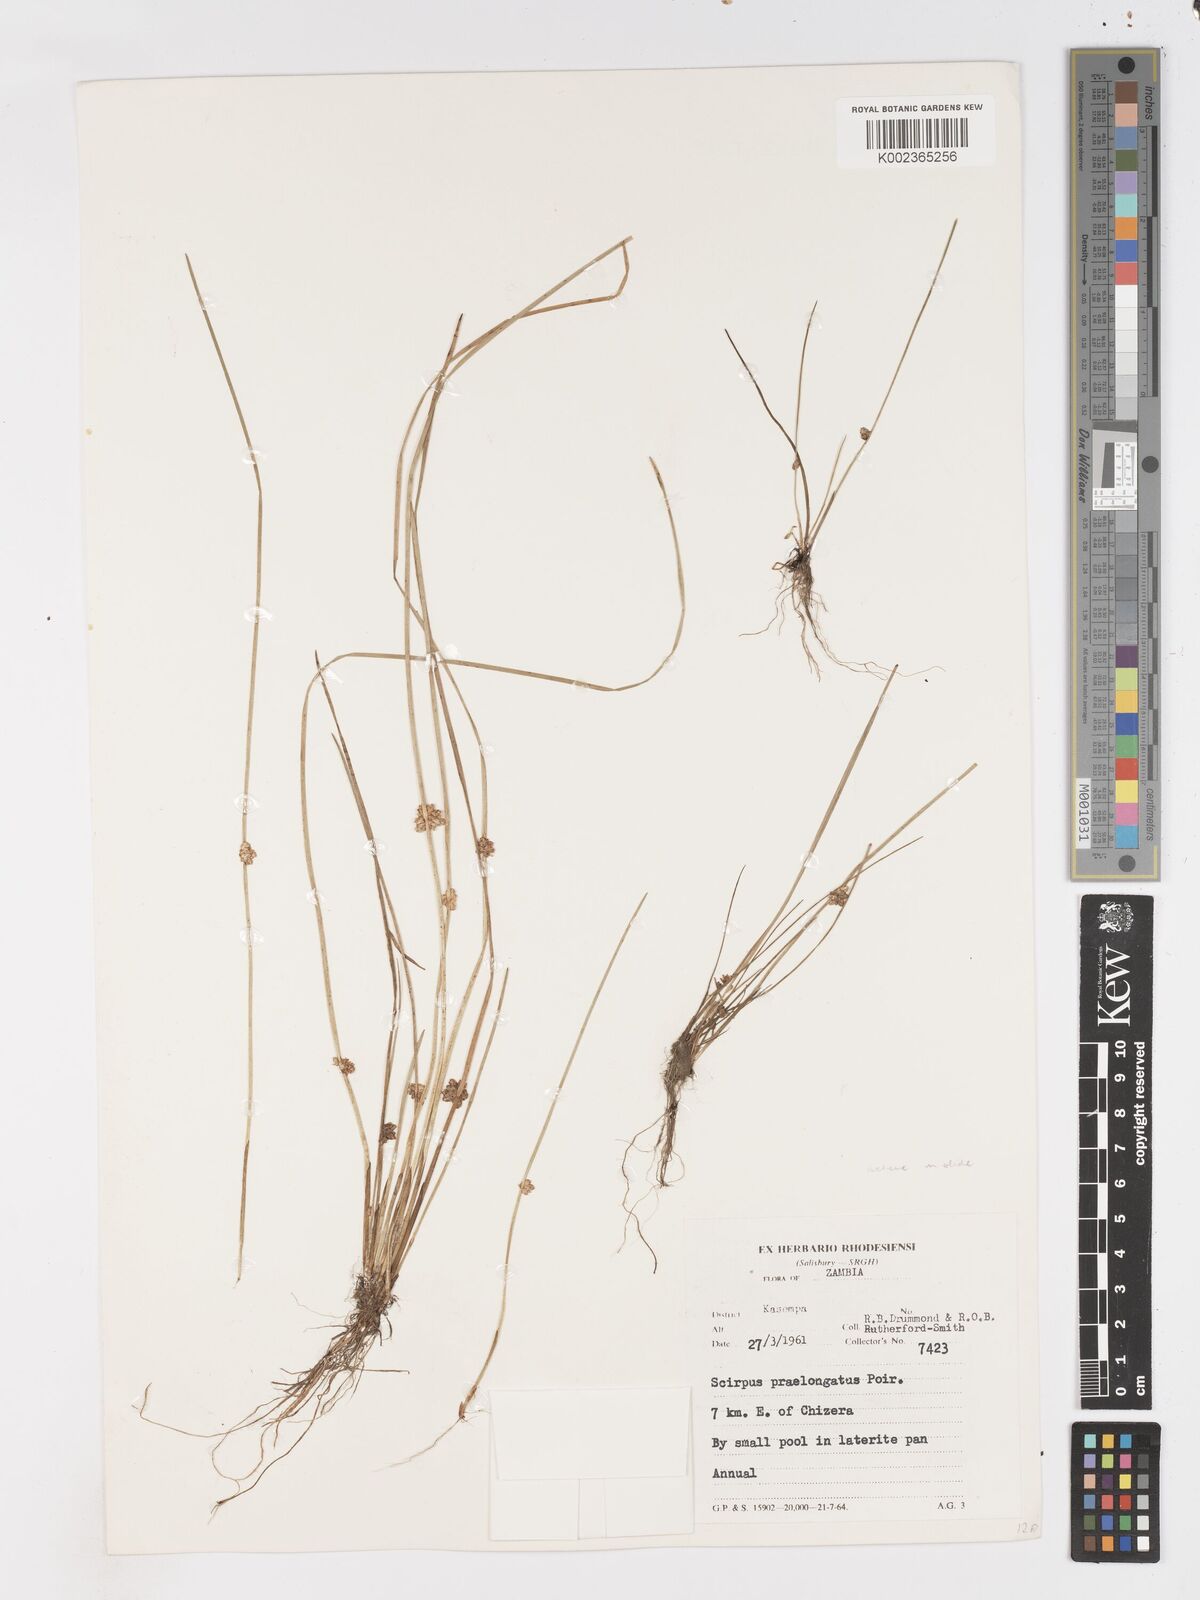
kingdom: Plantae
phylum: Tracheophyta
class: Liliopsida
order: Poales
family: Cyperaceae
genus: Schoenoplectiella
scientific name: Schoenoplectiella senegalensis
